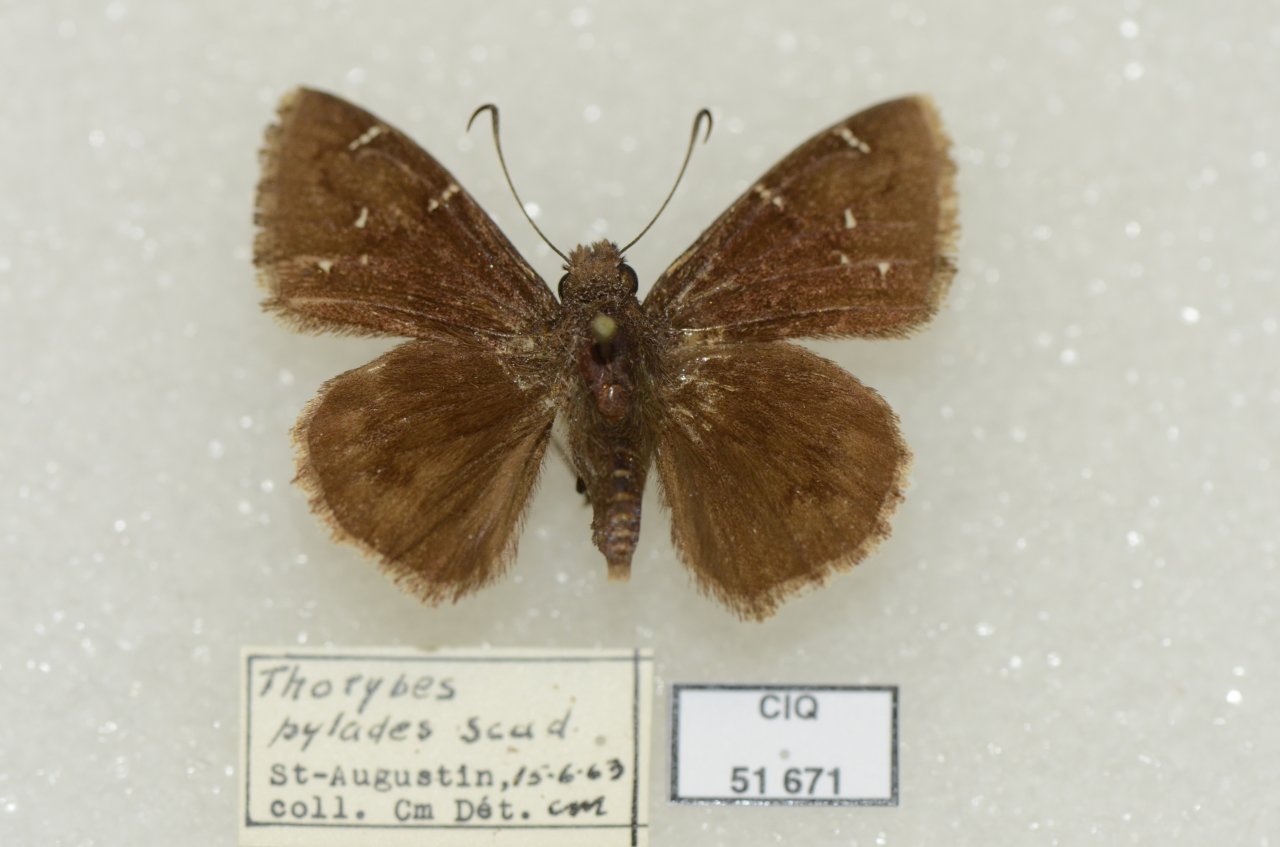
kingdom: Animalia
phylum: Arthropoda
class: Insecta
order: Lepidoptera
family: Hesperiidae
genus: Autochton
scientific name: Autochton
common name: Northern Cloudywing
